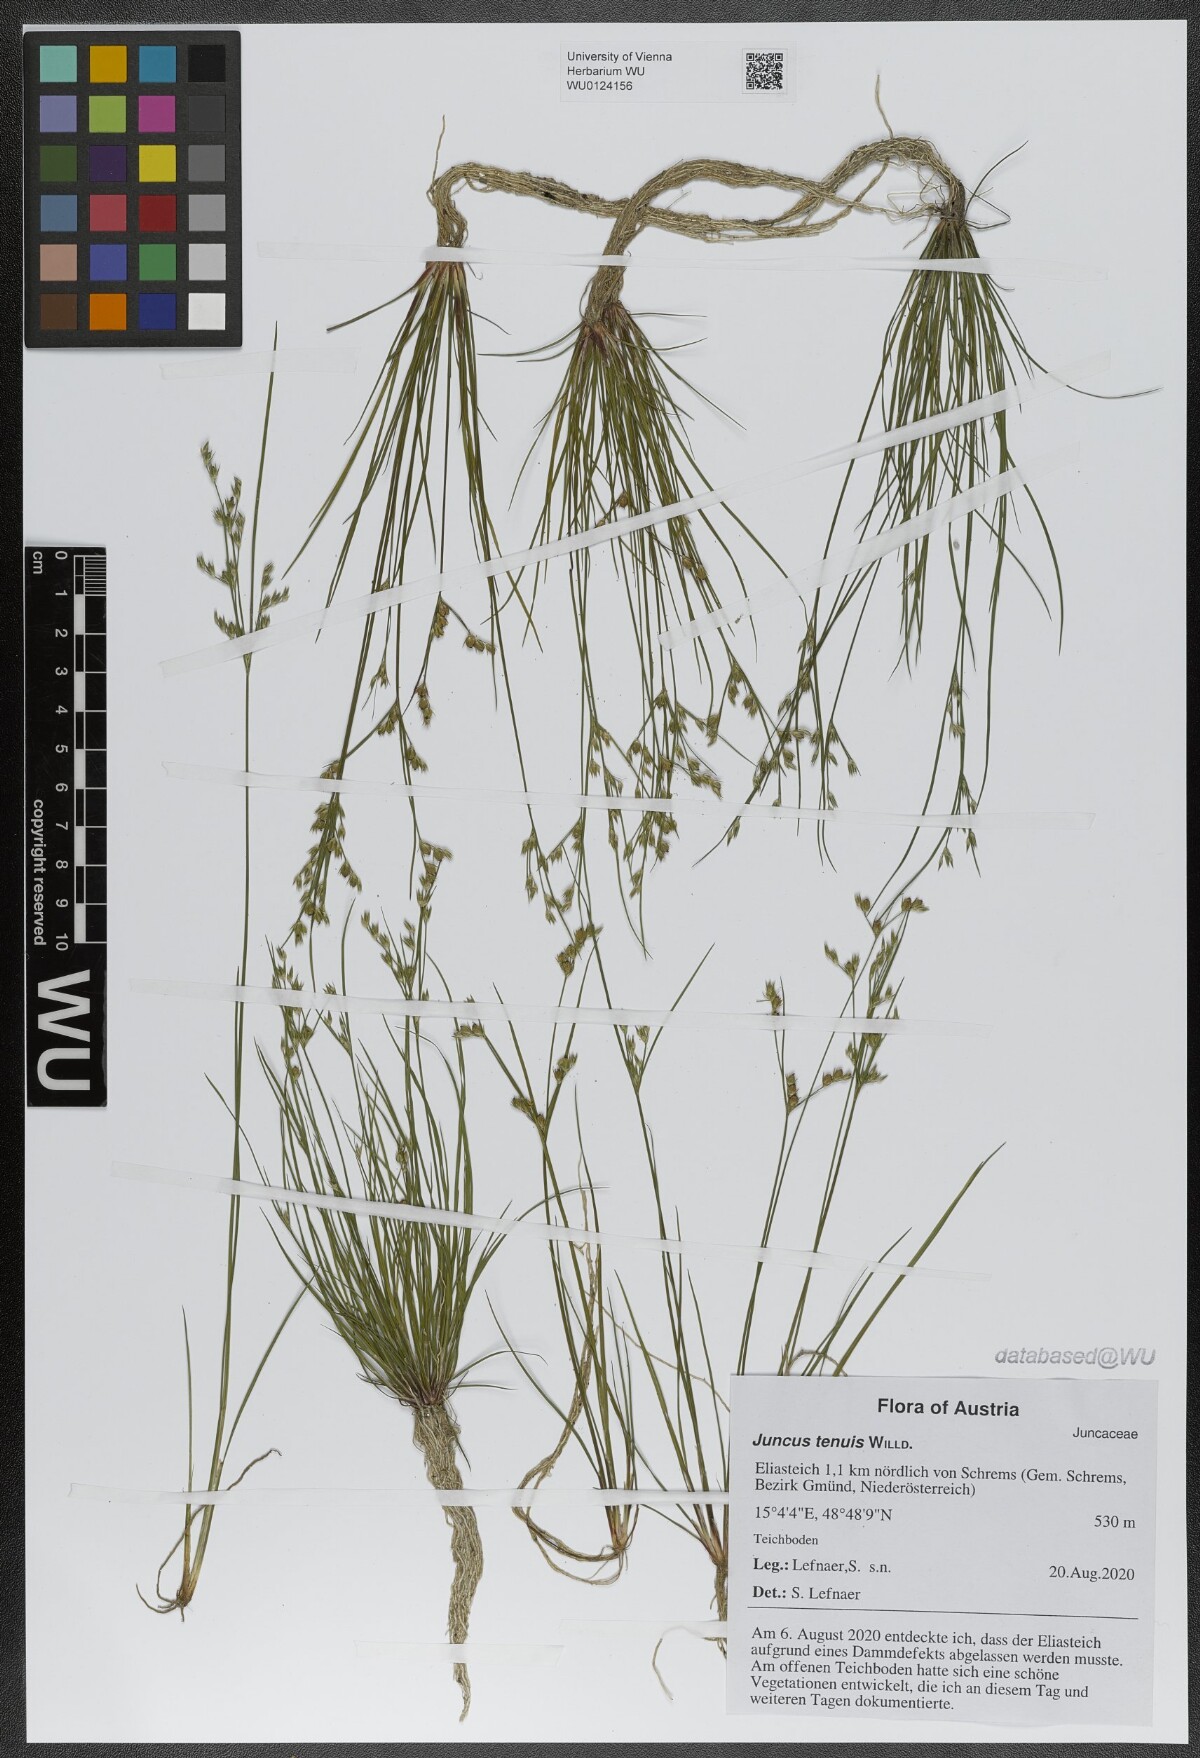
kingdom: Plantae
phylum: Tracheophyta
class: Liliopsida
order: Poales
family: Juncaceae
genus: Juncus
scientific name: Juncus tenuis
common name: Slender rush
